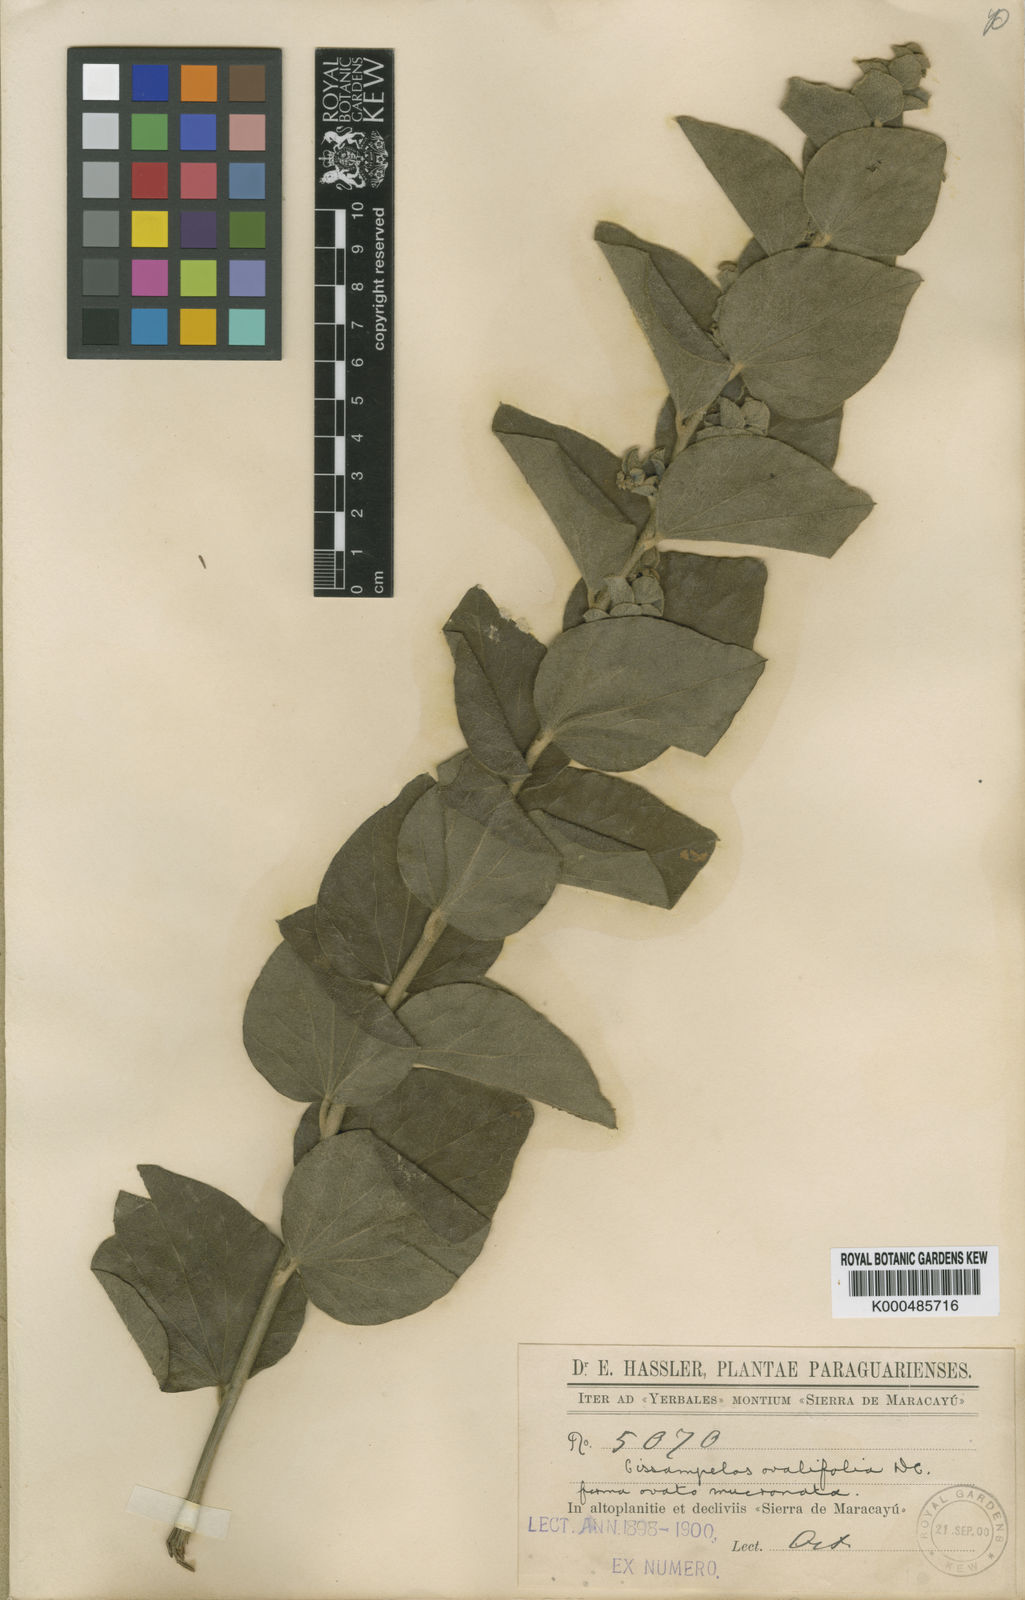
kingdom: Plantae
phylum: Tracheophyta
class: Magnoliopsida
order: Ranunculales
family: Menispermaceae
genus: Cissampelos
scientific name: Cissampelos ovalifolia
